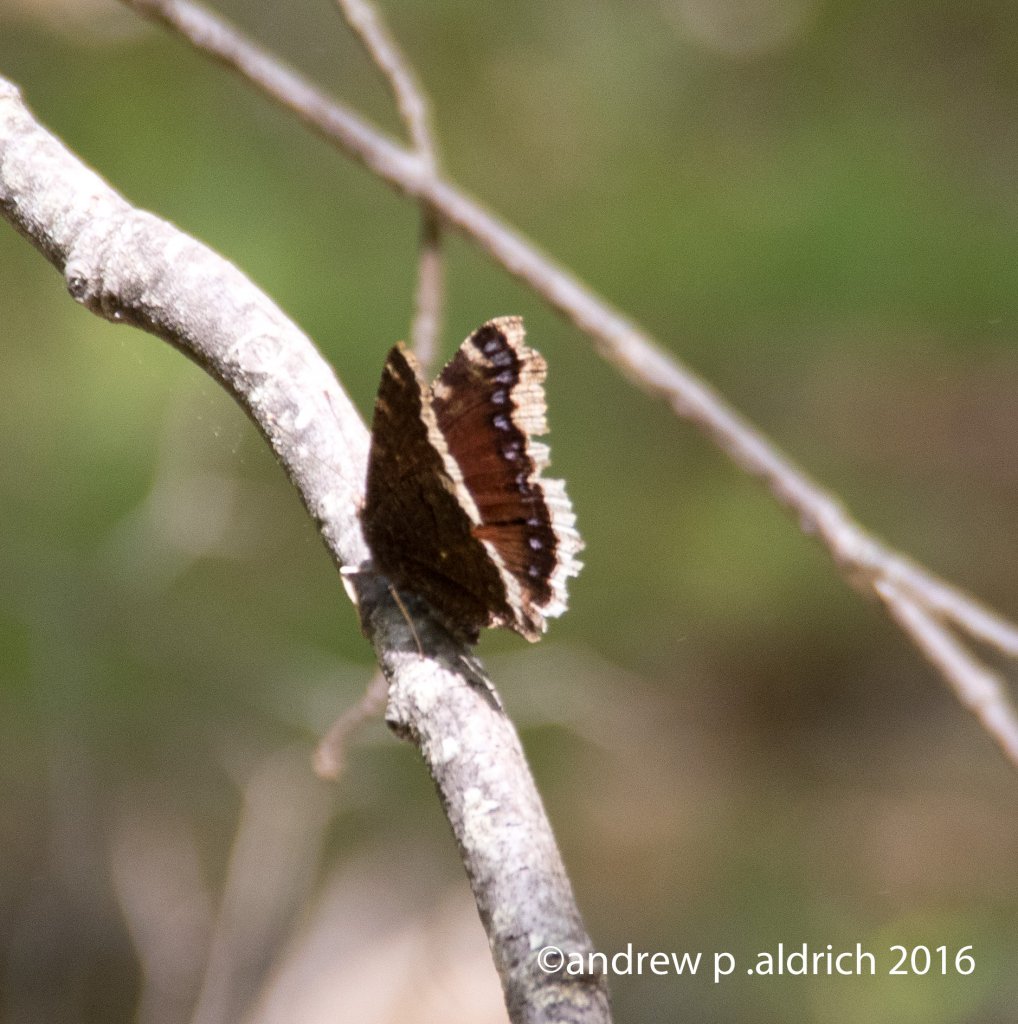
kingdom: Animalia
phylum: Arthropoda
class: Insecta
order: Lepidoptera
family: Nymphalidae
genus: Nymphalis
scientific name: Nymphalis antiopa
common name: Mourning Cloak
